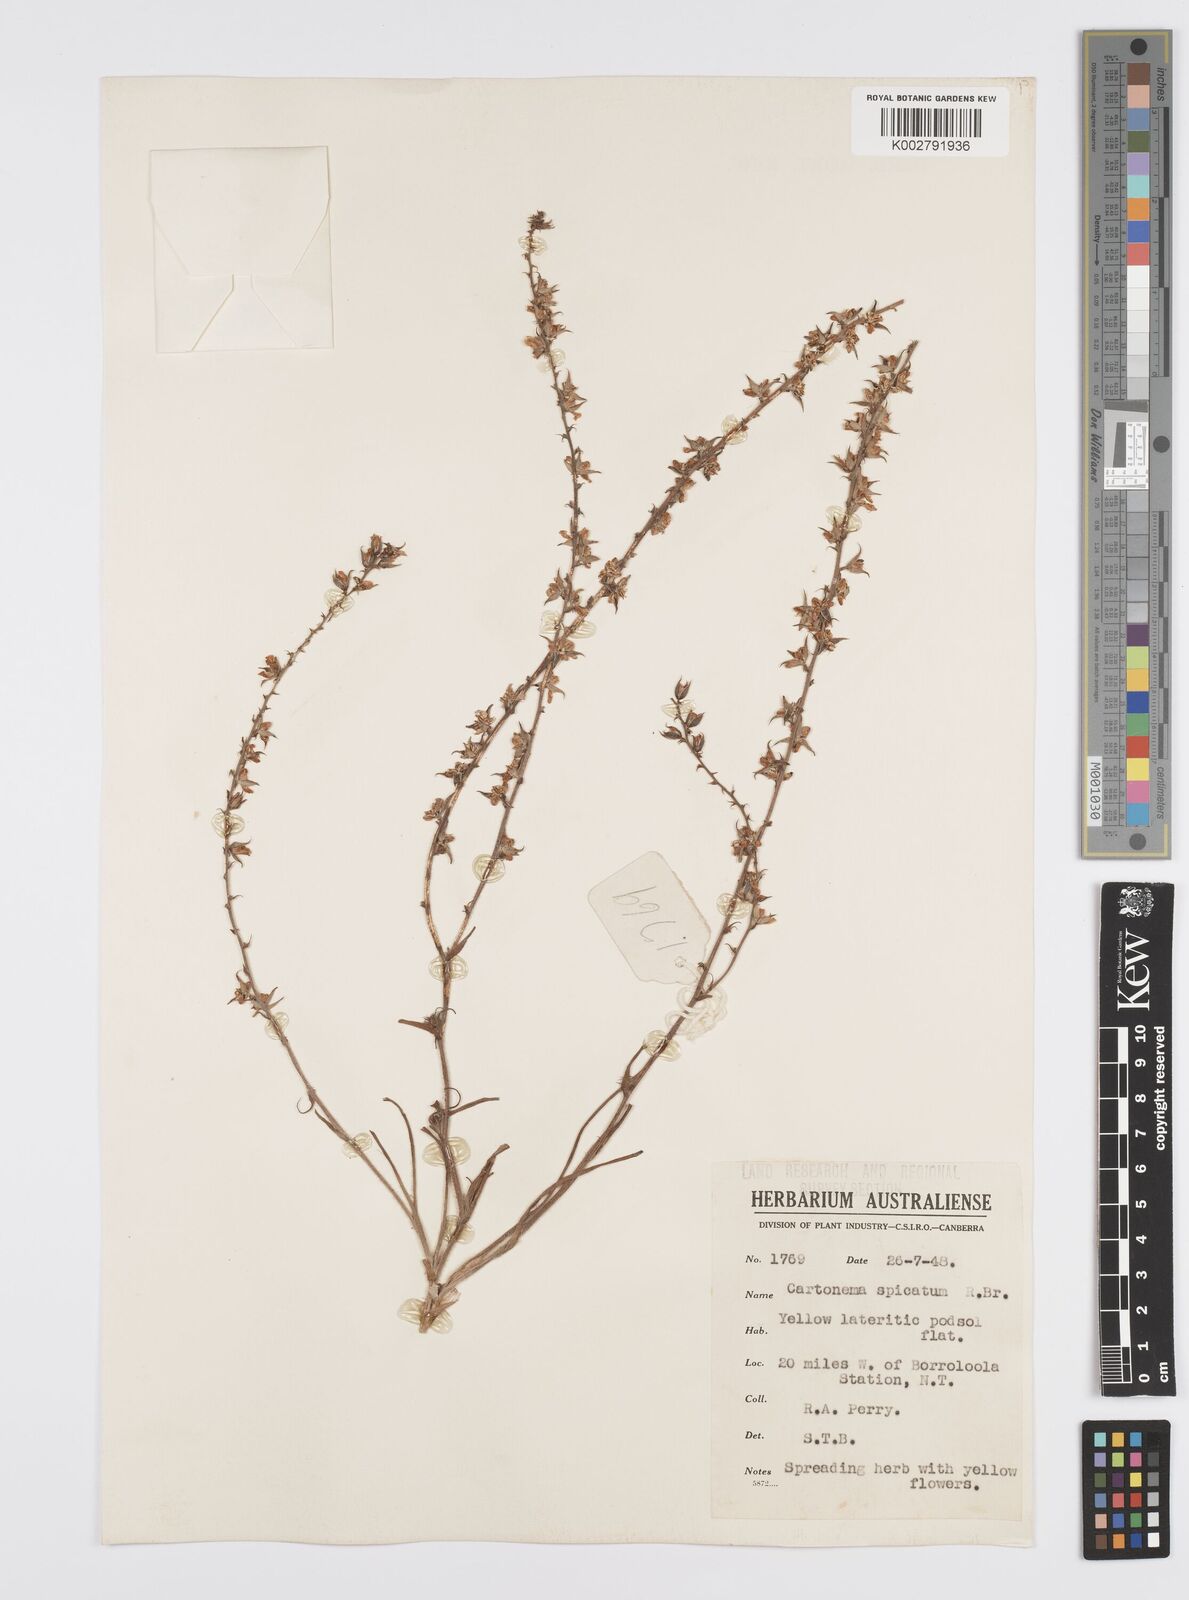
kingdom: Plantae
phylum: Tracheophyta
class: Liliopsida
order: Commelinales
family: Commelinaceae
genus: Cartonema
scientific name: Cartonema parviflorum
